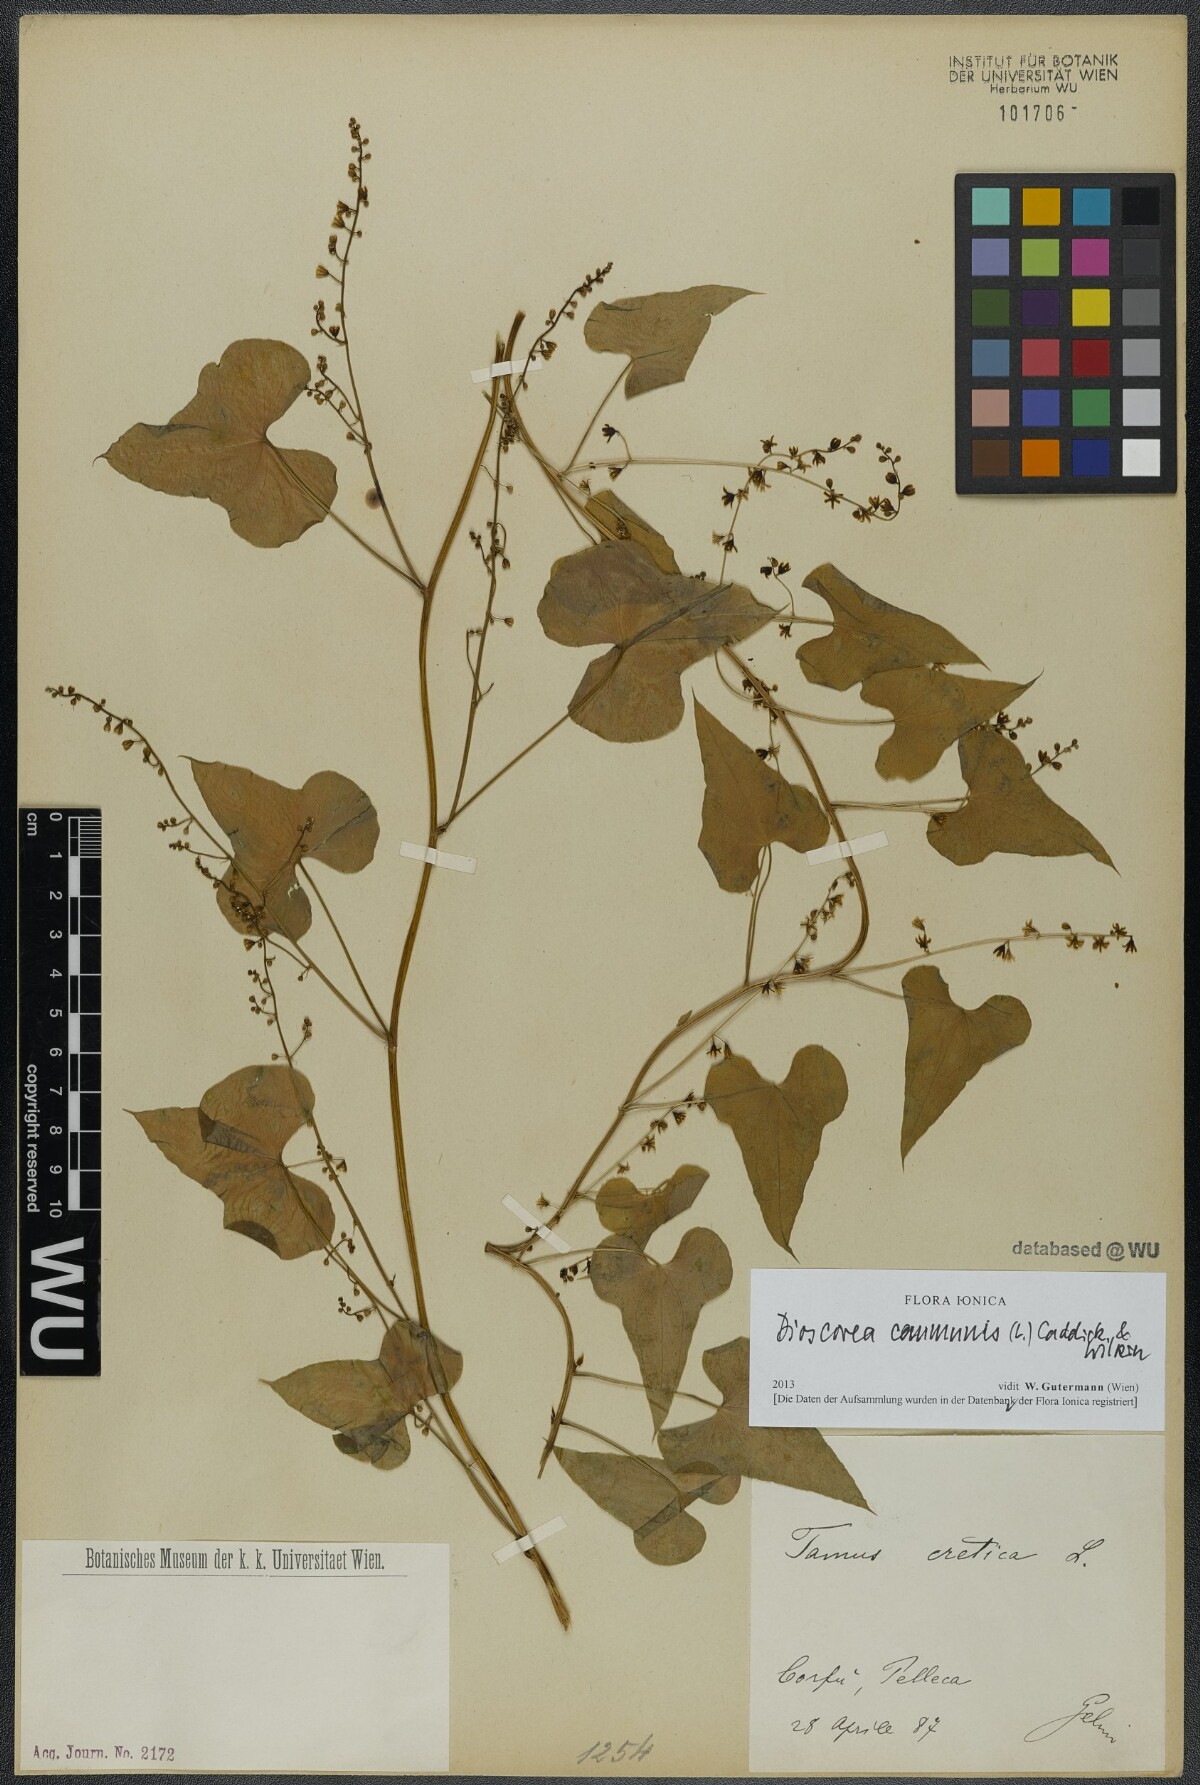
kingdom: Plantae
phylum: Tracheophyta
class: Liliopsida
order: Dioscoreales
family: Dioscoreaceae
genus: Dioscorea
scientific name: Dioscorea communis
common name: Black-bindweed
